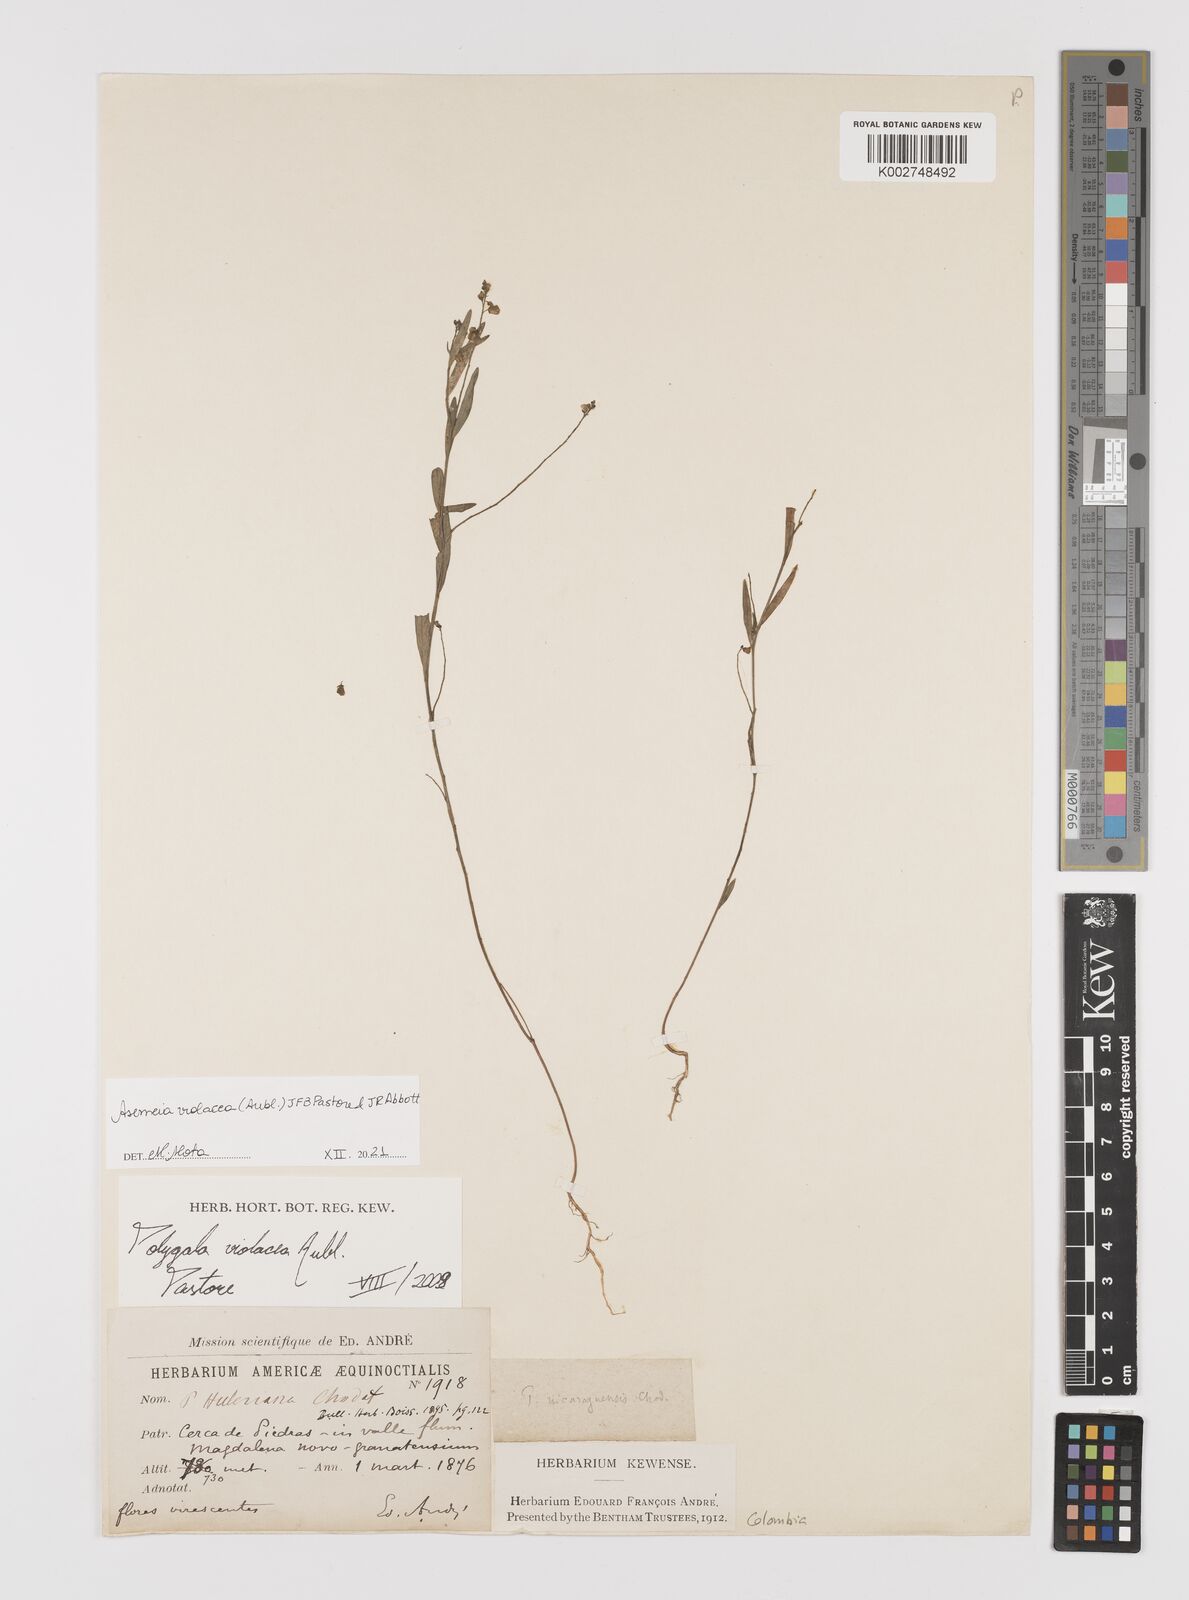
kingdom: Plantae
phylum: Tracheophyta
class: Magnoliopsida
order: Fabales
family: Polygalaceae
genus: Asemeia
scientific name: Asemeia violacea
